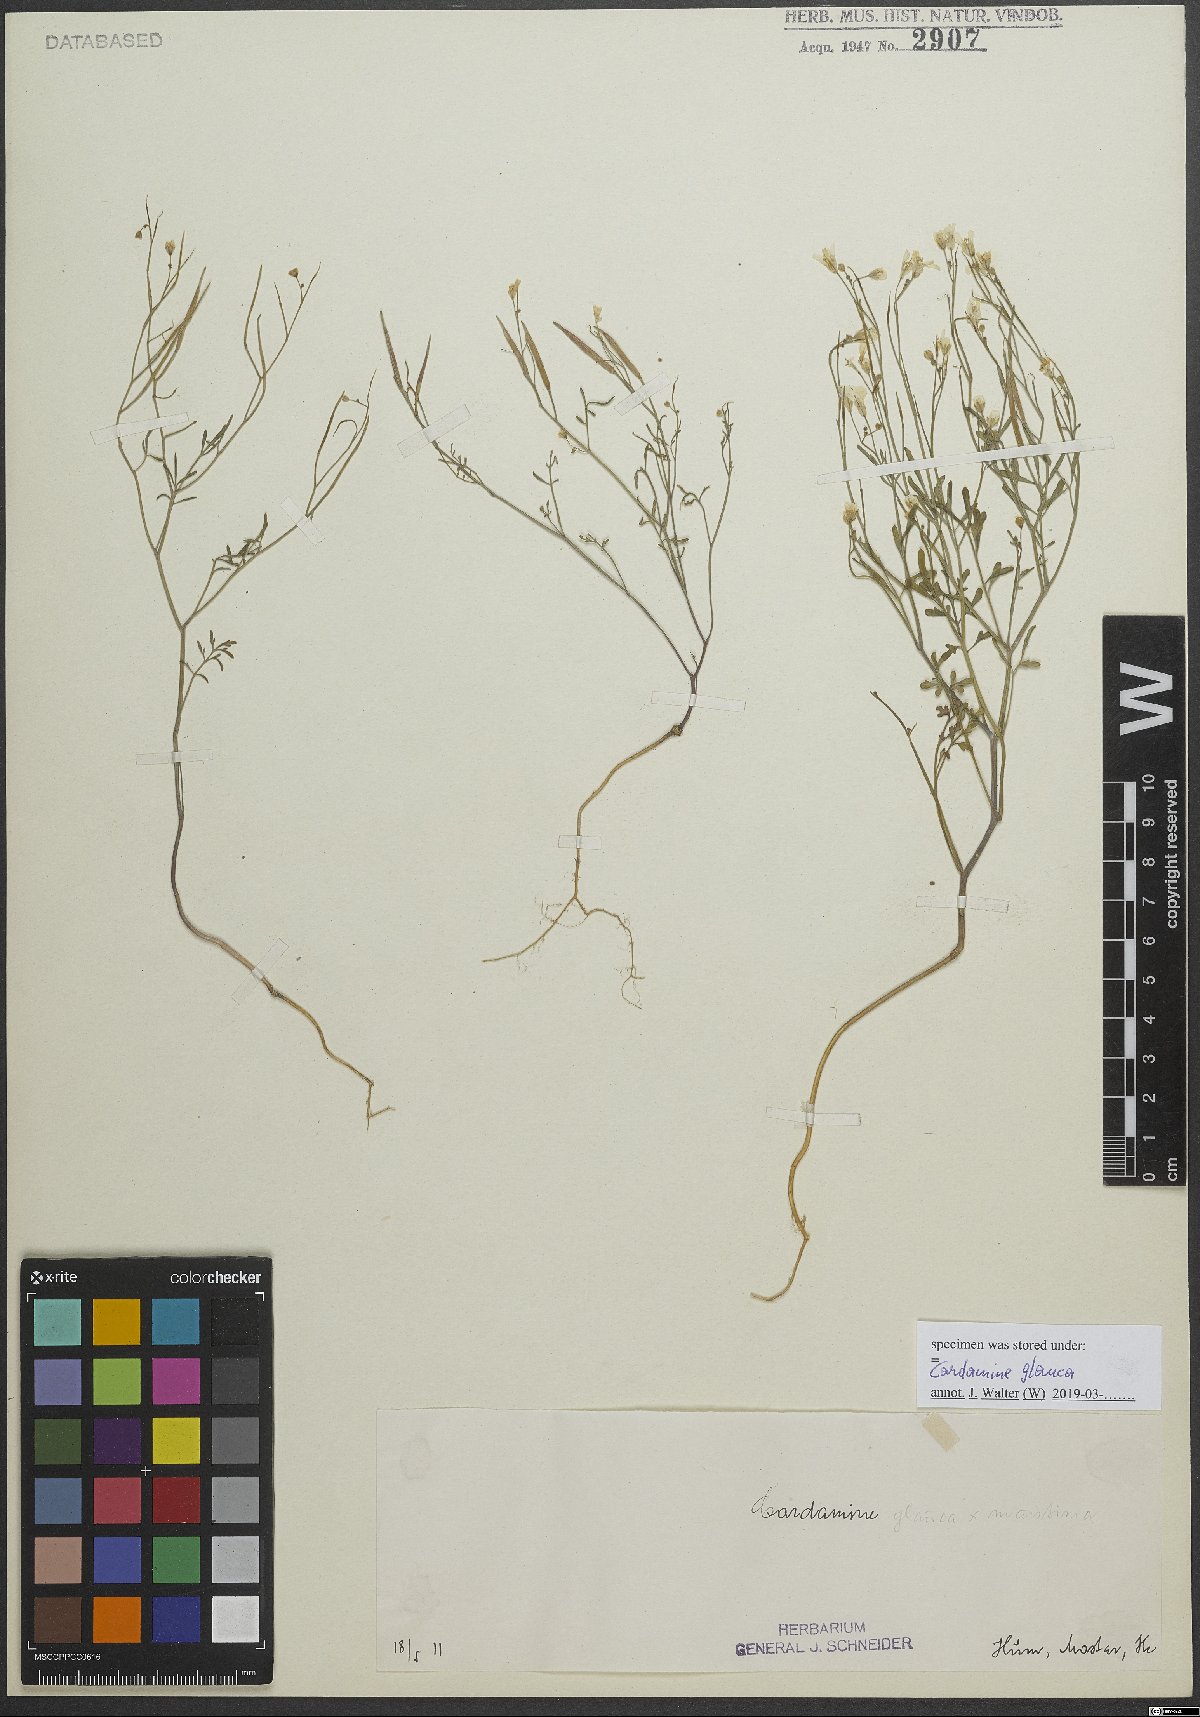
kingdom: Plantae
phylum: Tracheophyta
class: Magnoliopsida
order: Brassicales
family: Brassicaceae
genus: Cardamine
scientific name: Cardamine glauca
